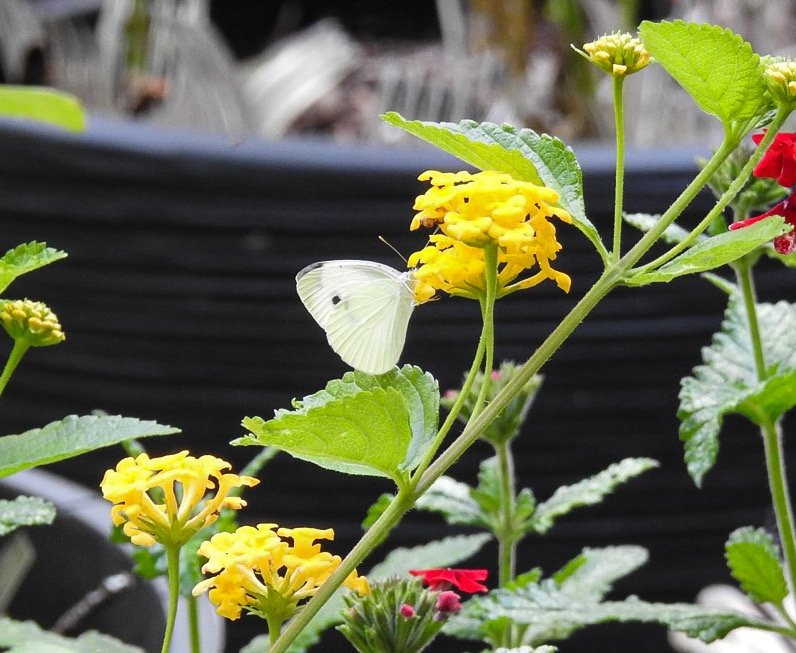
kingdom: Animalia
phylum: Arthropoda
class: Insecta
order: Lepidoptera
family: Pieridae
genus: Pieris
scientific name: Pieris rapae
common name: Cabbage White
